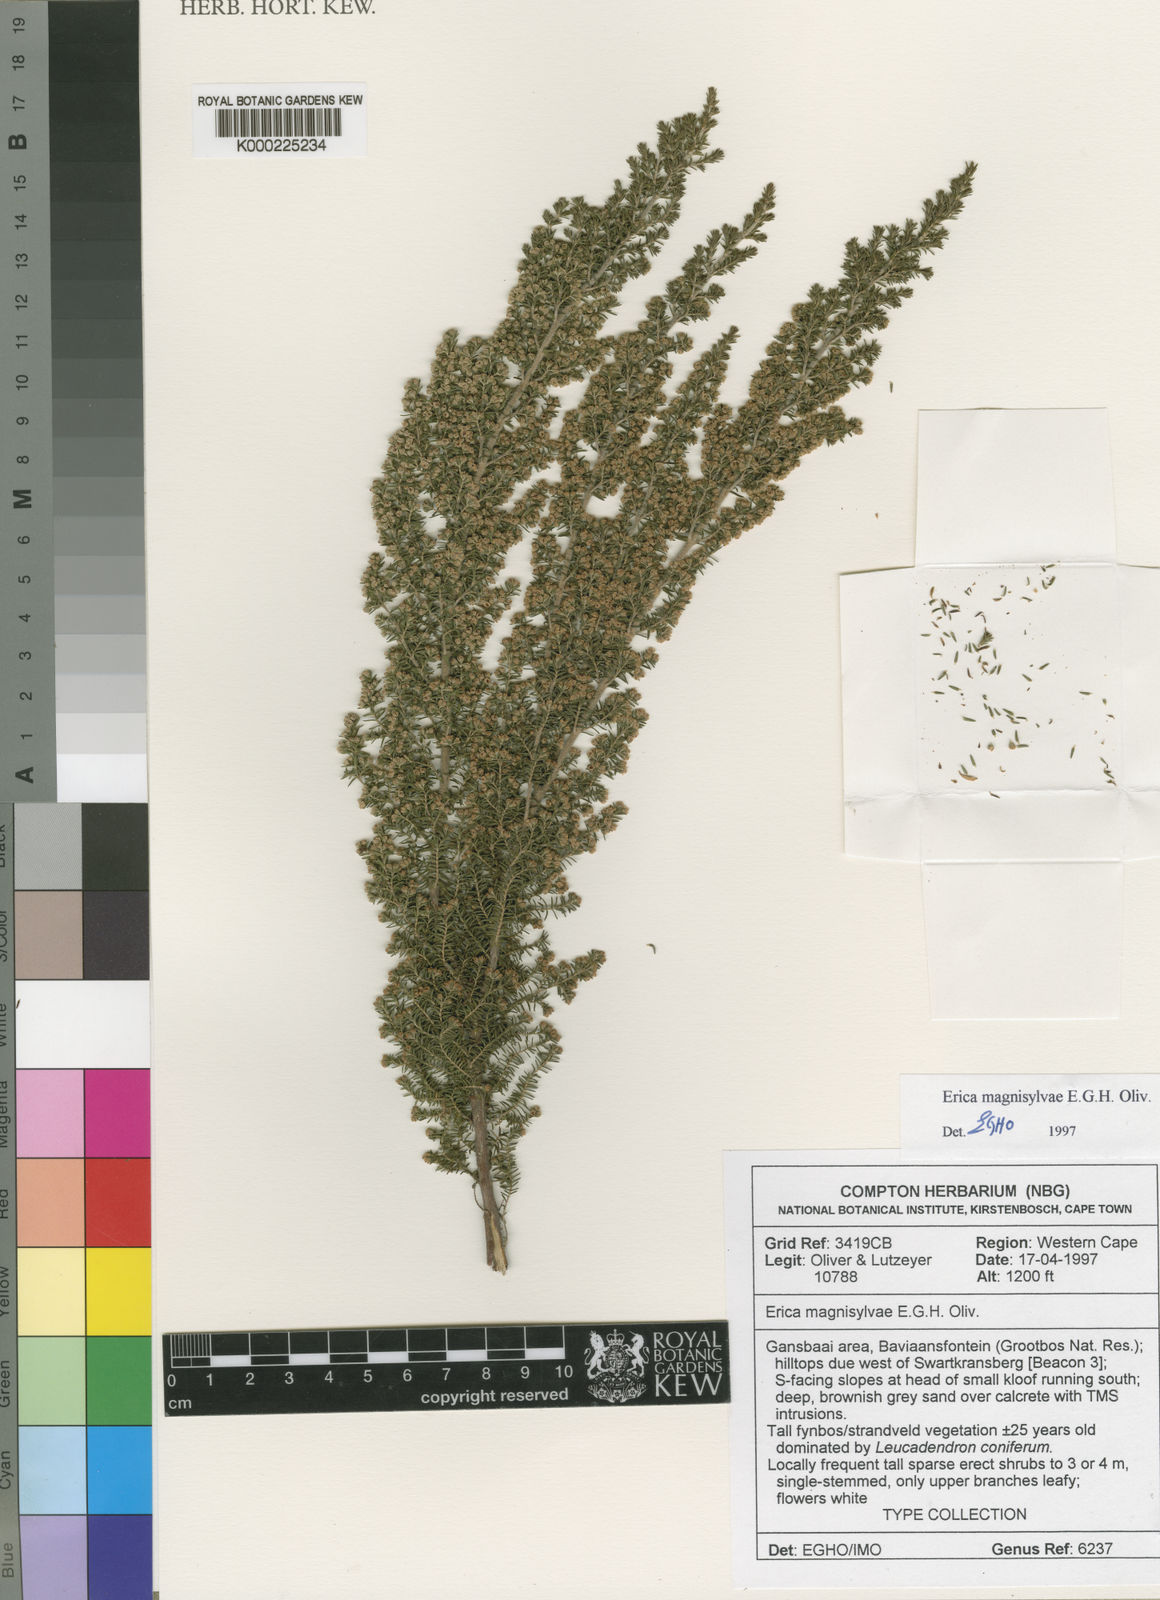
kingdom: Plantae
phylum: Tracheophyta
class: Magnoliopsida
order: Ericales
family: Ericaceae
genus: Erica
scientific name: Erica magnisylvae
